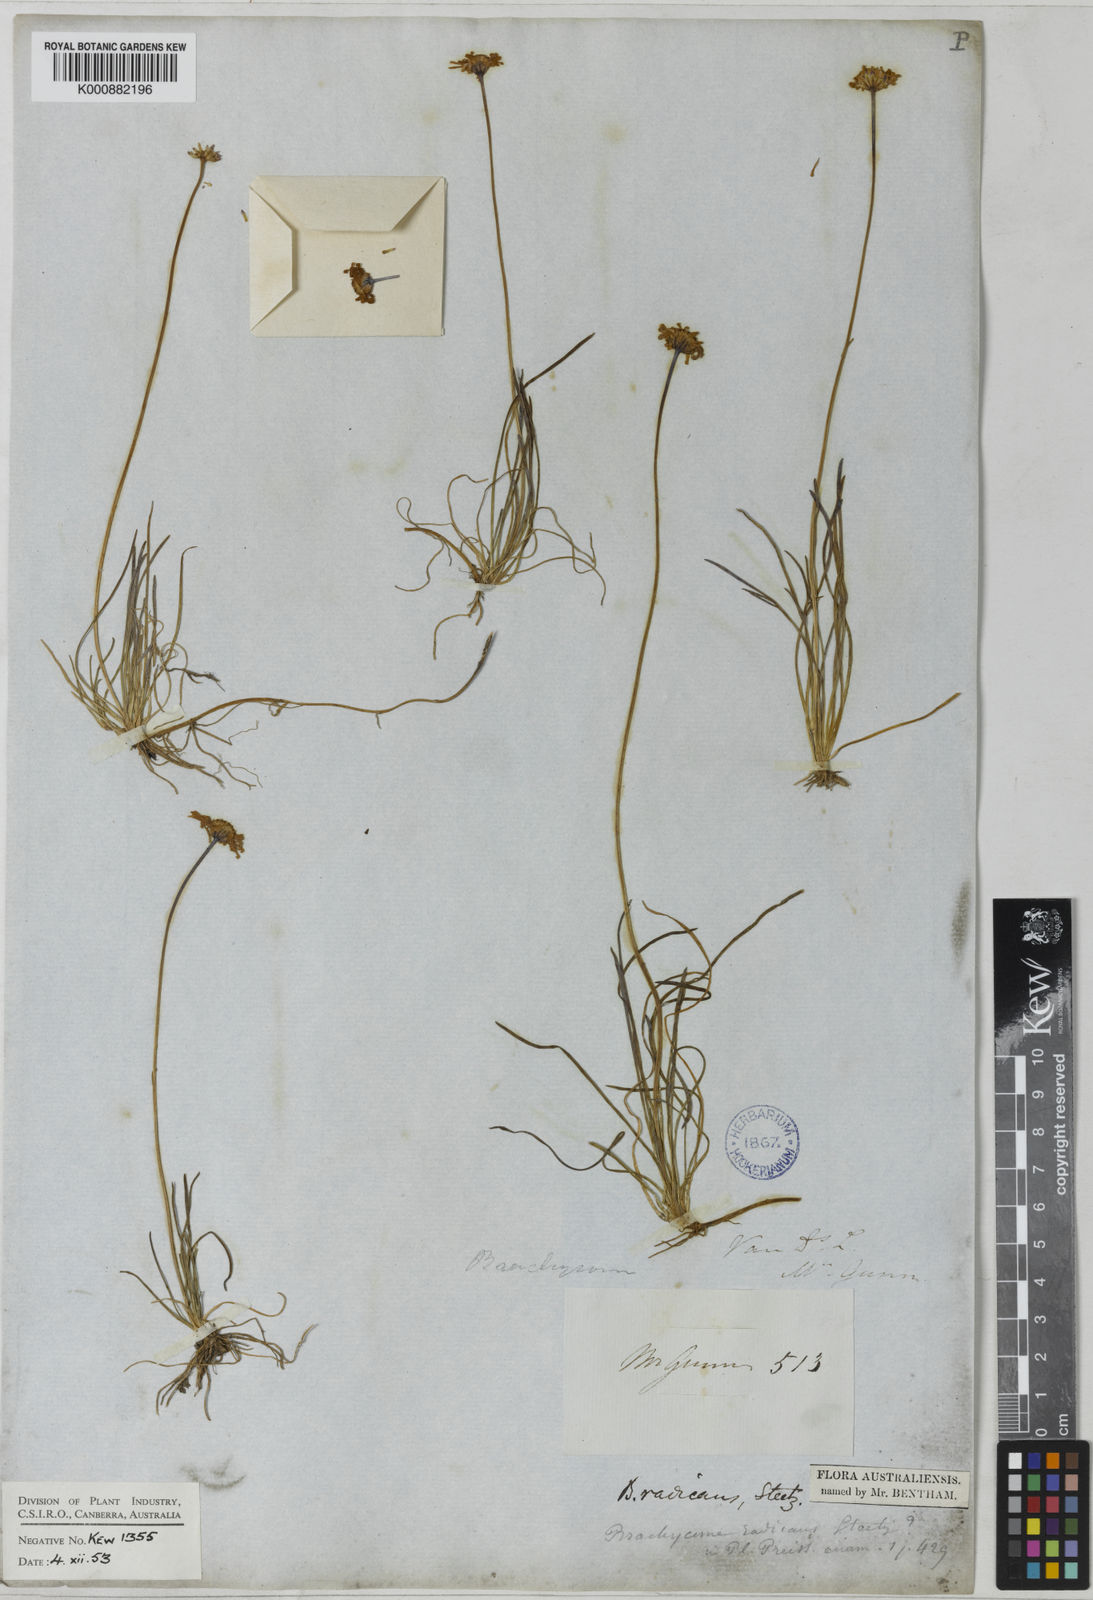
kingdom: Plantae
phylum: Tracheophyta
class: Magnoliopsida
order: Asterales
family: Asteraceae
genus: Brachyscome
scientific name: Brachyscome radicans
